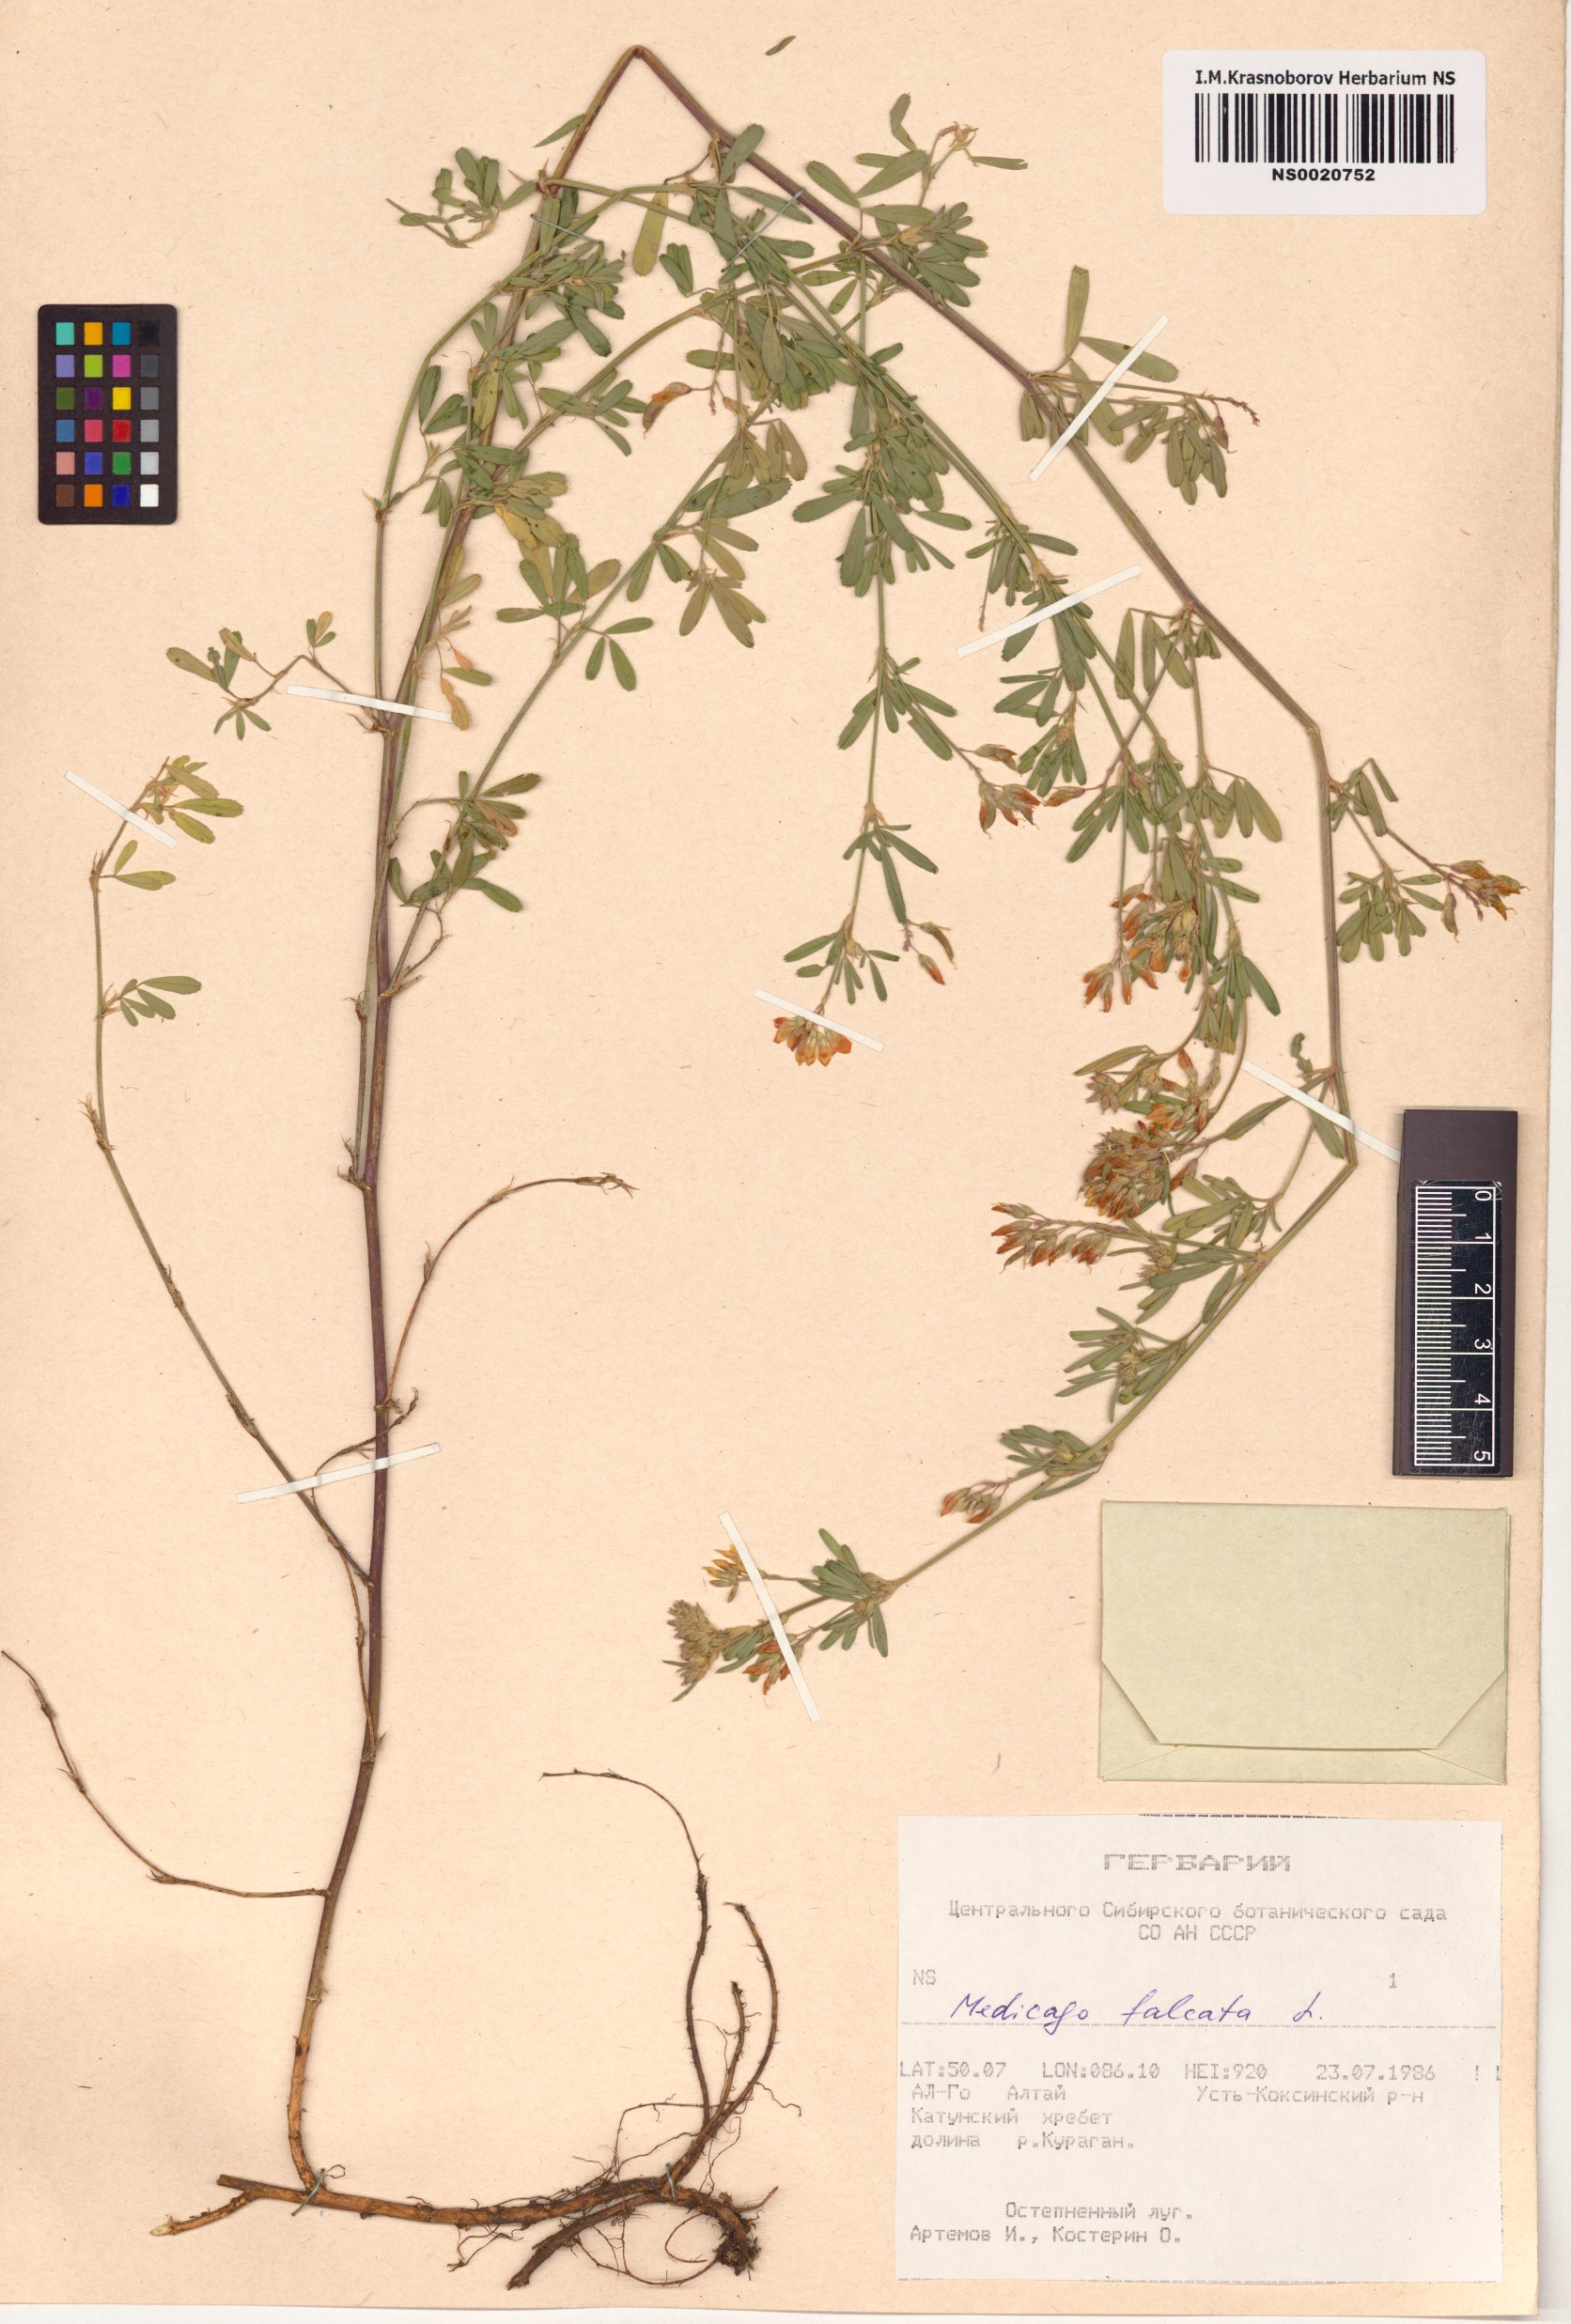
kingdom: Plantae
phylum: Tracheophyta
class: Magnoliopsida
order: Fabales
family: Fabaceae
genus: Medicago
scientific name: Medicago falcata
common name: Sickle medick
